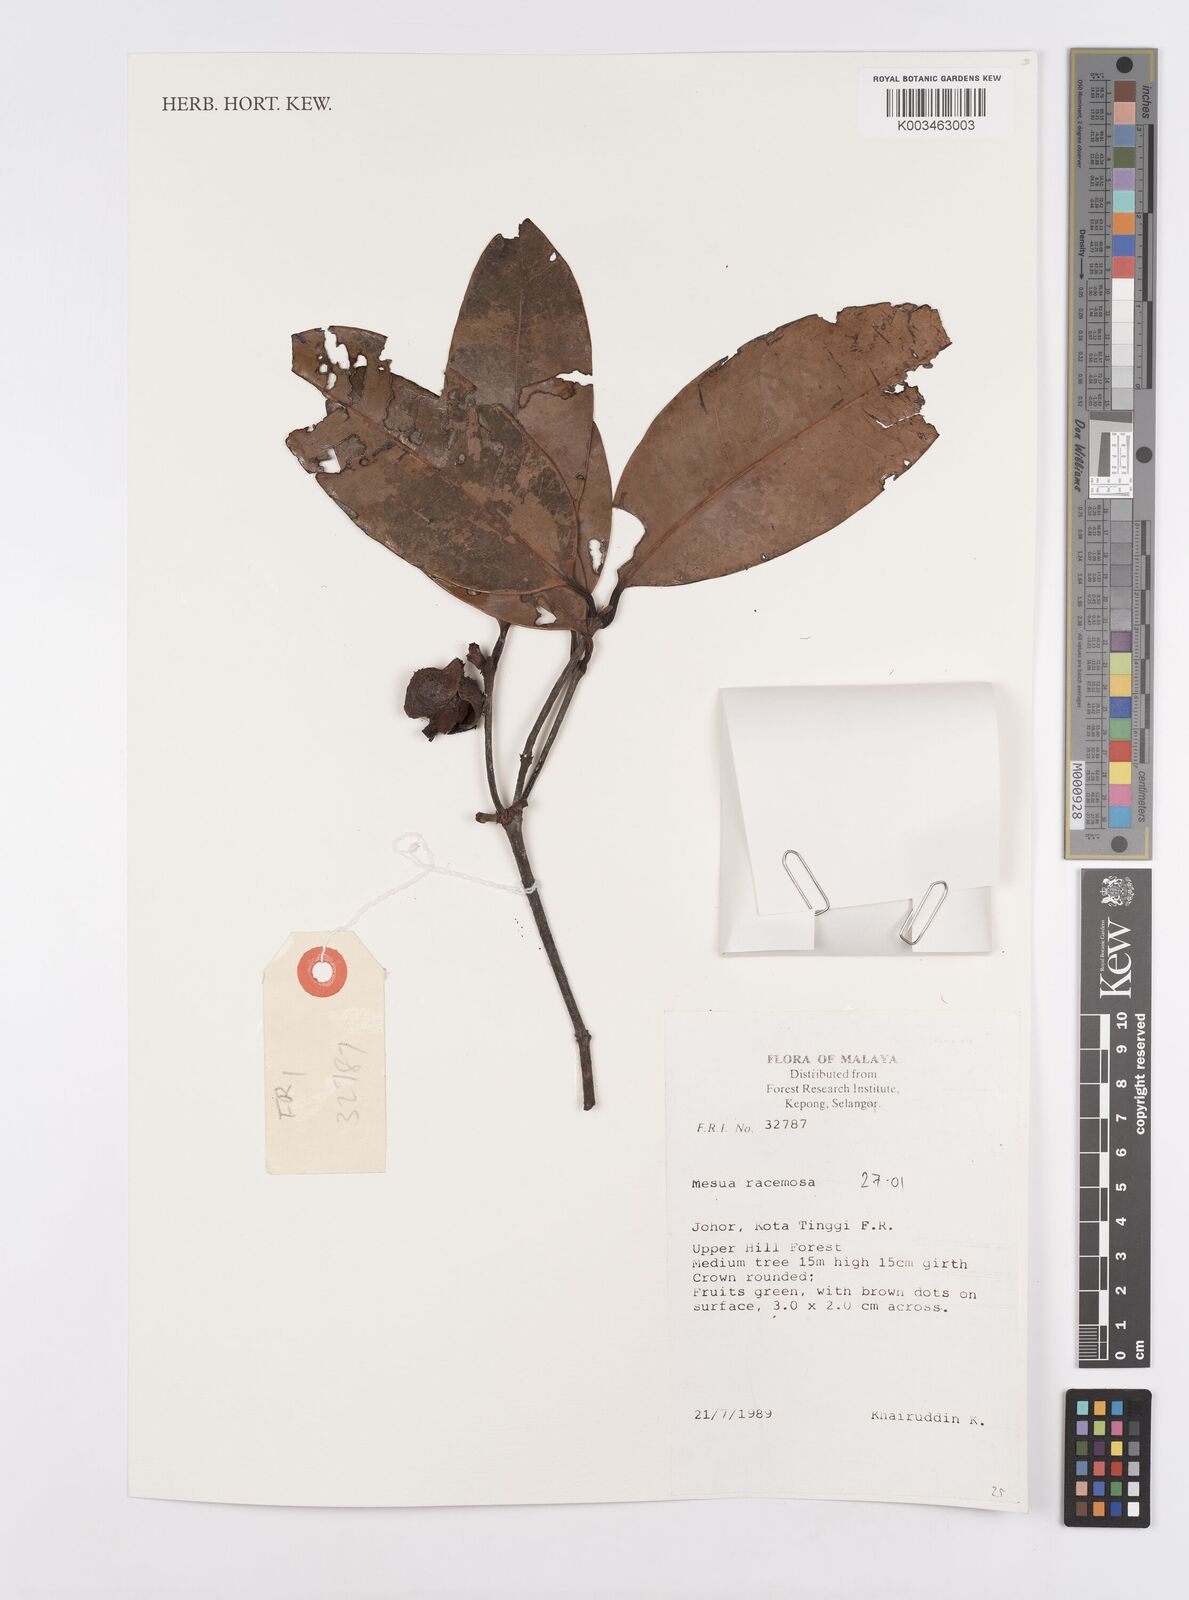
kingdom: Plantae
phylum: Tracheophyta
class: Magnoliopsida
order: Malpighiales
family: Calophyllaceae
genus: Kayea
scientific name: Kayea racemosa
